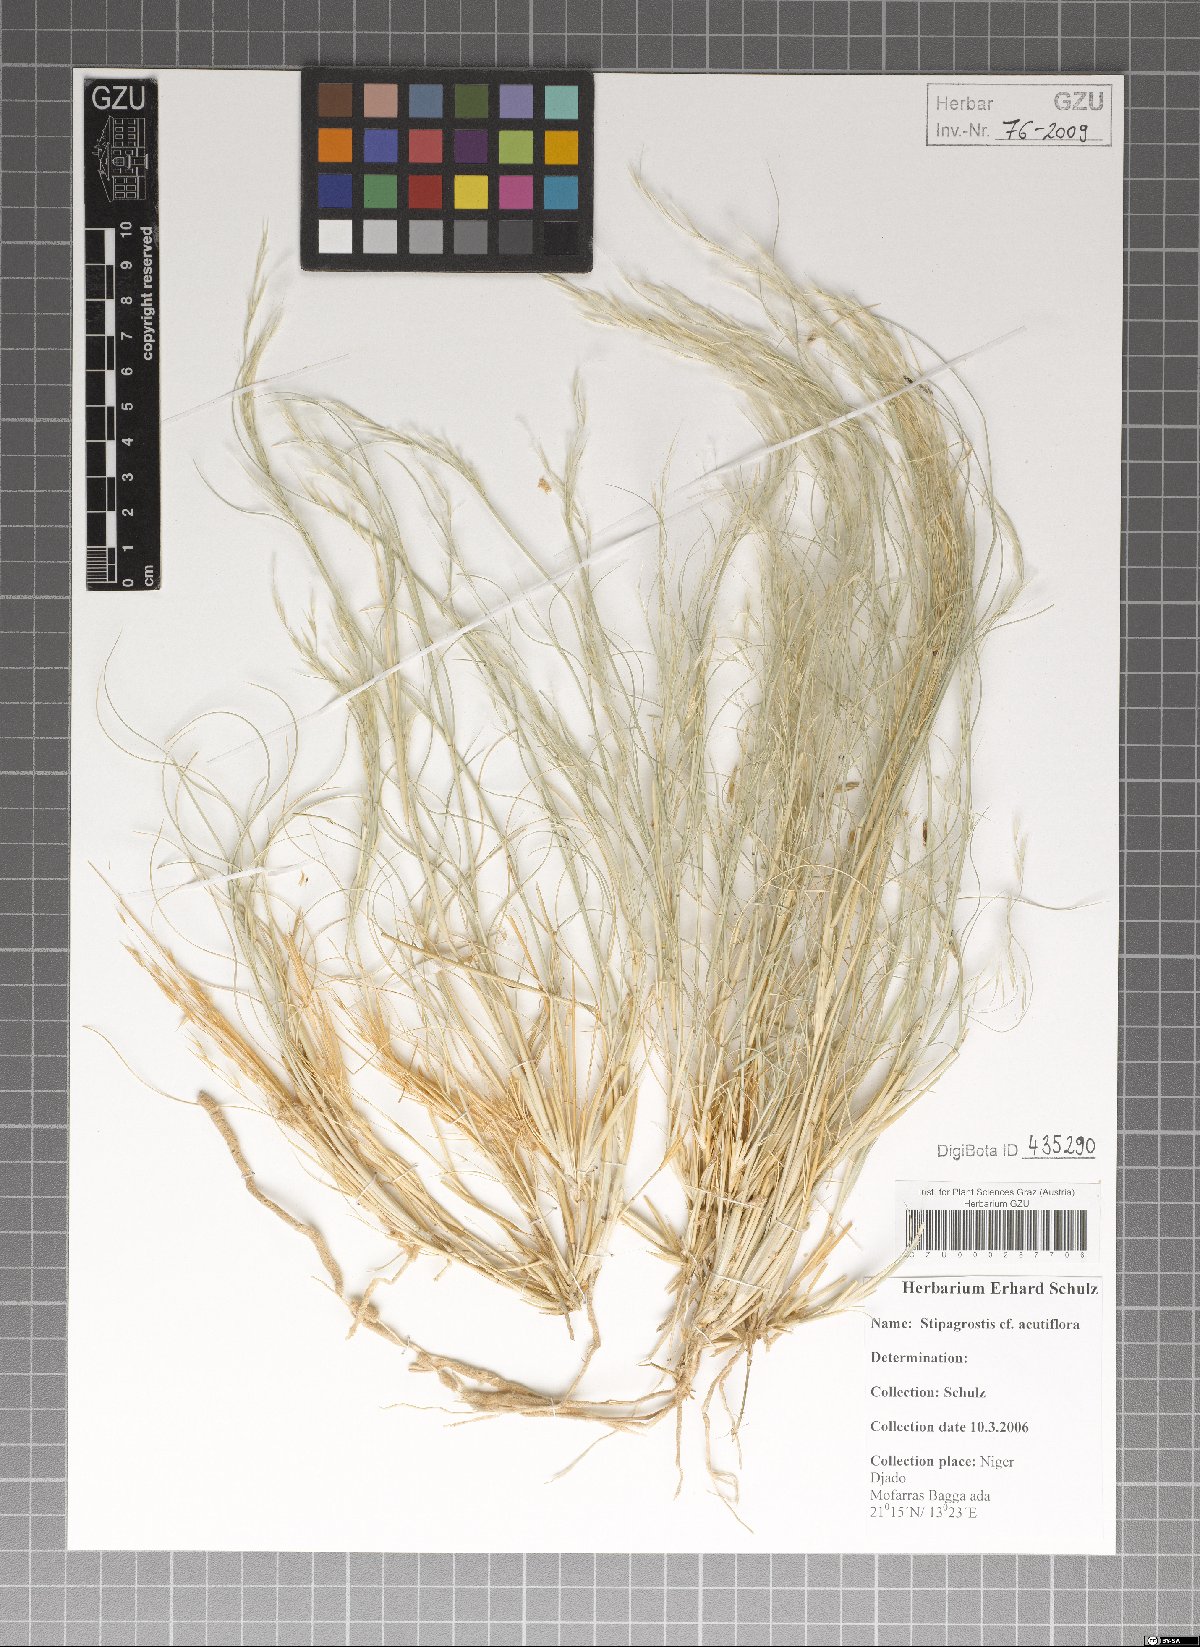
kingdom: Plantae
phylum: Tracheophyta
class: Liliopsida
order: Poales
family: Poaceae
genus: Stipagrostis
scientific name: Stipagrostis acutiflora
